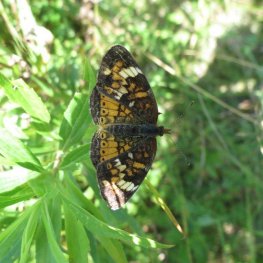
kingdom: Animalia
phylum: Arthropoda
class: Insecta
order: Lepidoptera
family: Nymphalidae
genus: Phyciodes
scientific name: Phyciodes tharos
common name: Northern Crescent
